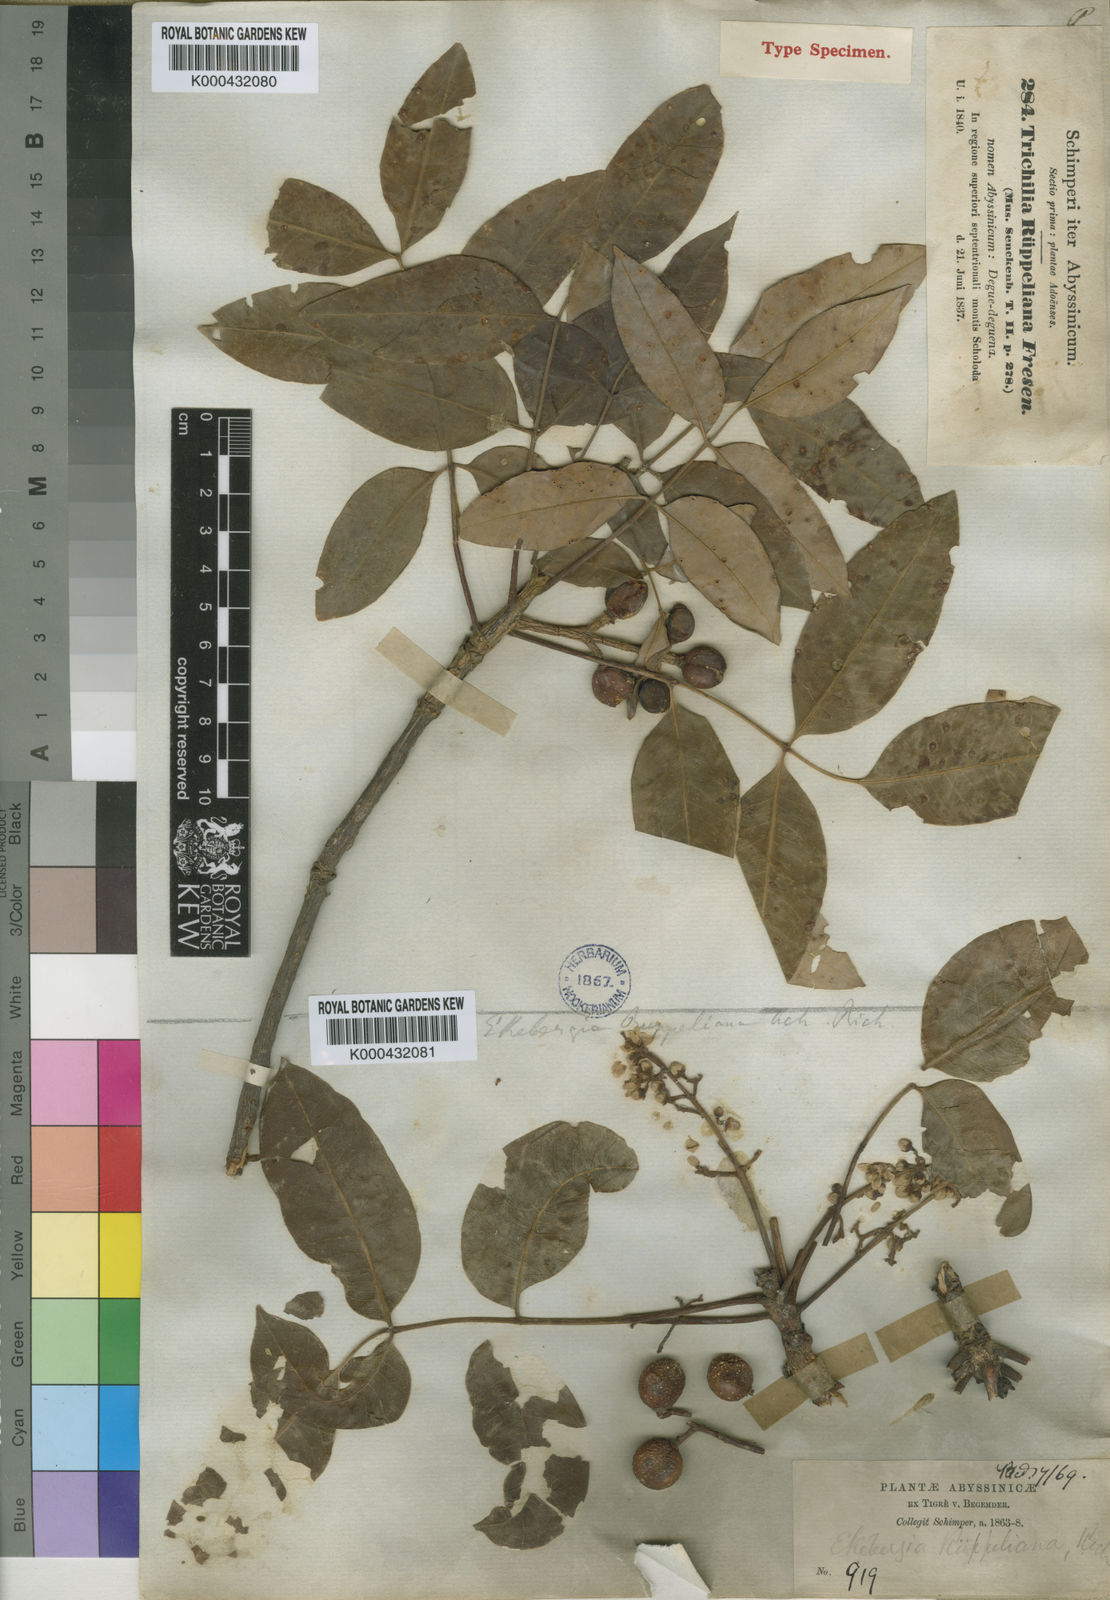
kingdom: Plantae
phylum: Tracheophyta
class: Magnoliopsida
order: Sapindales
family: Meliaceae
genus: Ekebergia
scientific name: Ekebergia capensis
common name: Cape-ash
